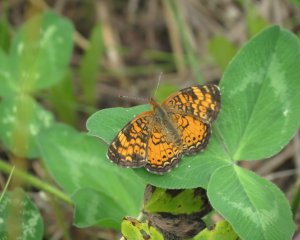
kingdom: Animalia
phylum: Arthropoda
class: Insecta
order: Lepidoptera
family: Nymphalidae
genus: Phyciodes
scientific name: Phyciodes tharos
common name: Northern Crescent
